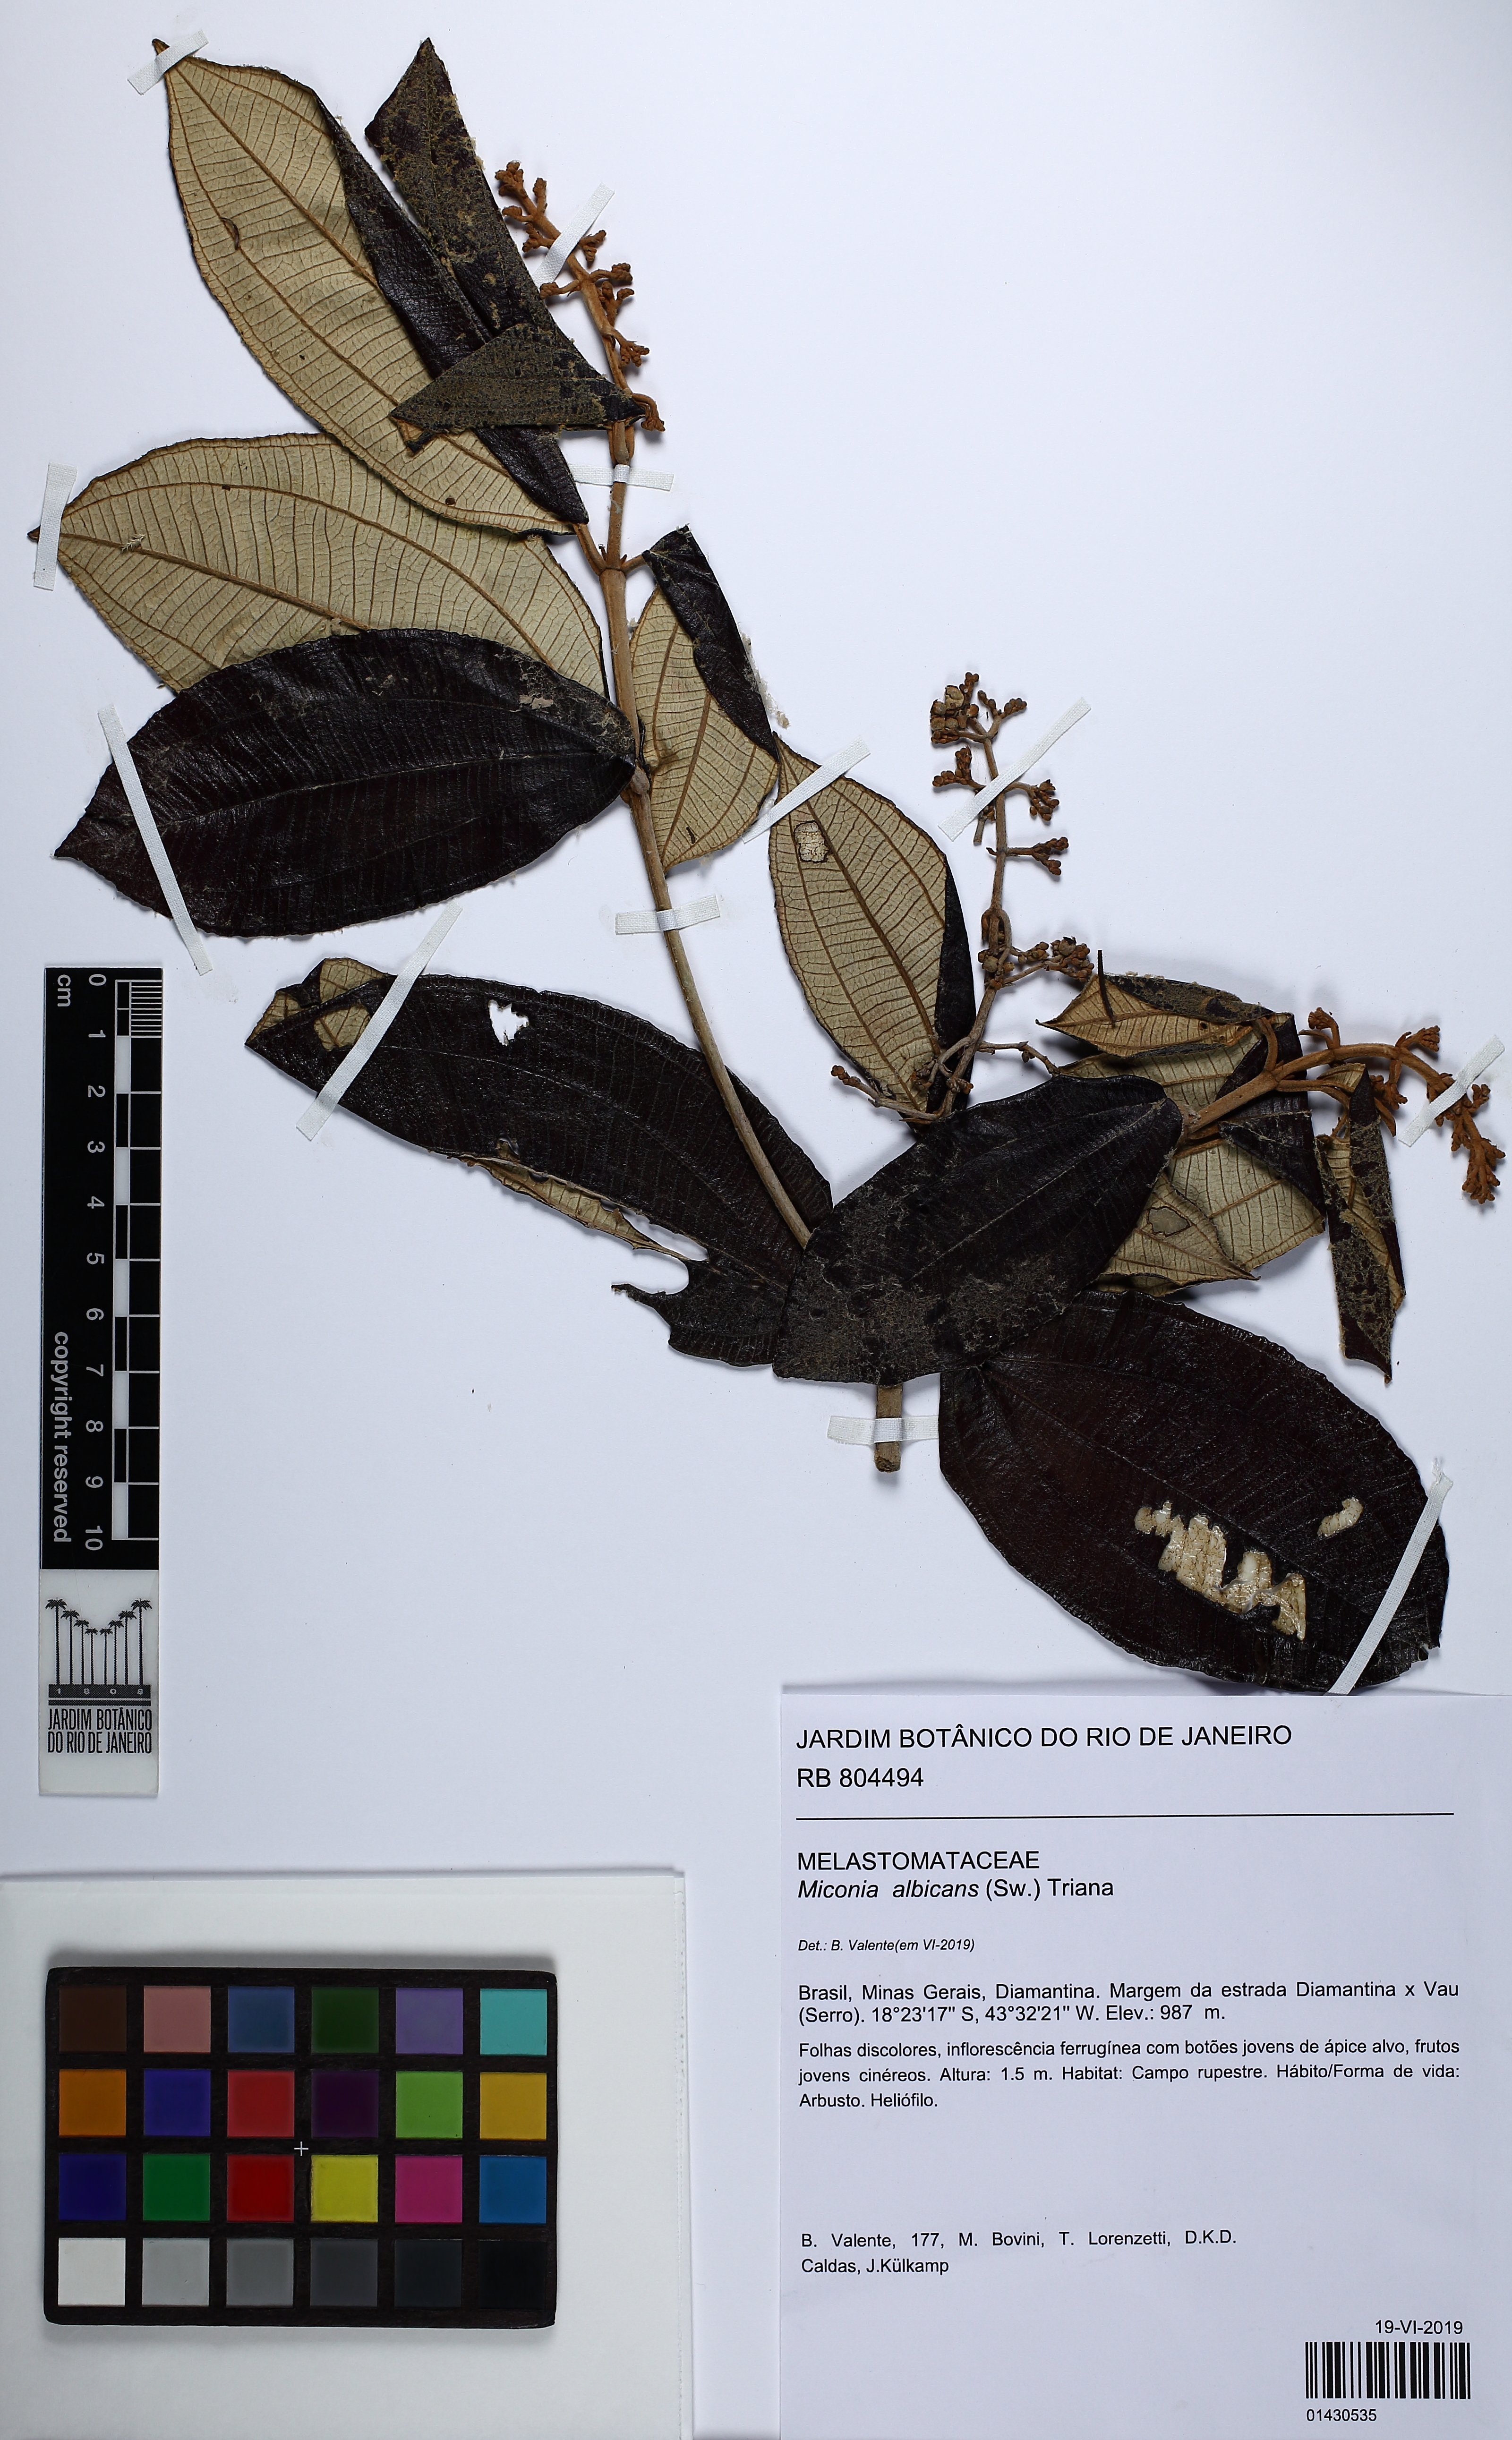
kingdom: Plantae
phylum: Tracheophyta
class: Magnoliopsida
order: Myrtales
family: Melastomataceae
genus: Miconia
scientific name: Miconia albicans
